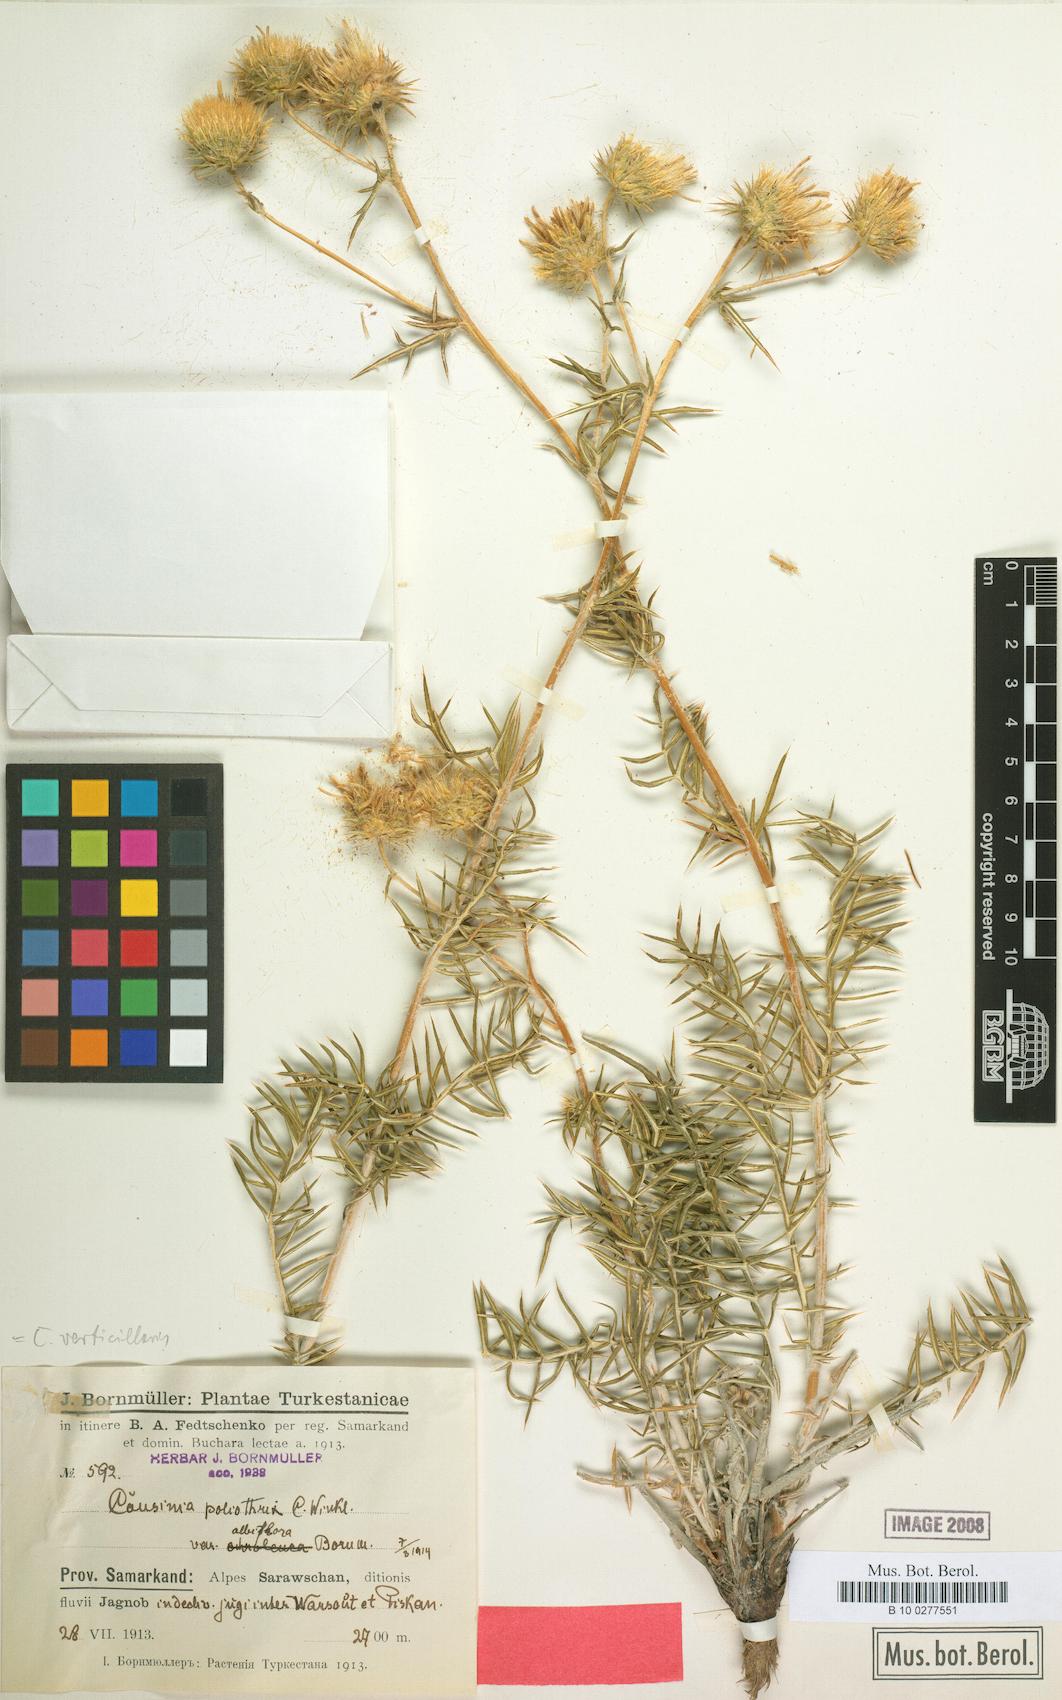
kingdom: Plantae
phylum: Tracheophyta
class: Magnoliopsida
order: Asterales
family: Asteraceae
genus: Cousinia
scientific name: Cousinia verticillaris
